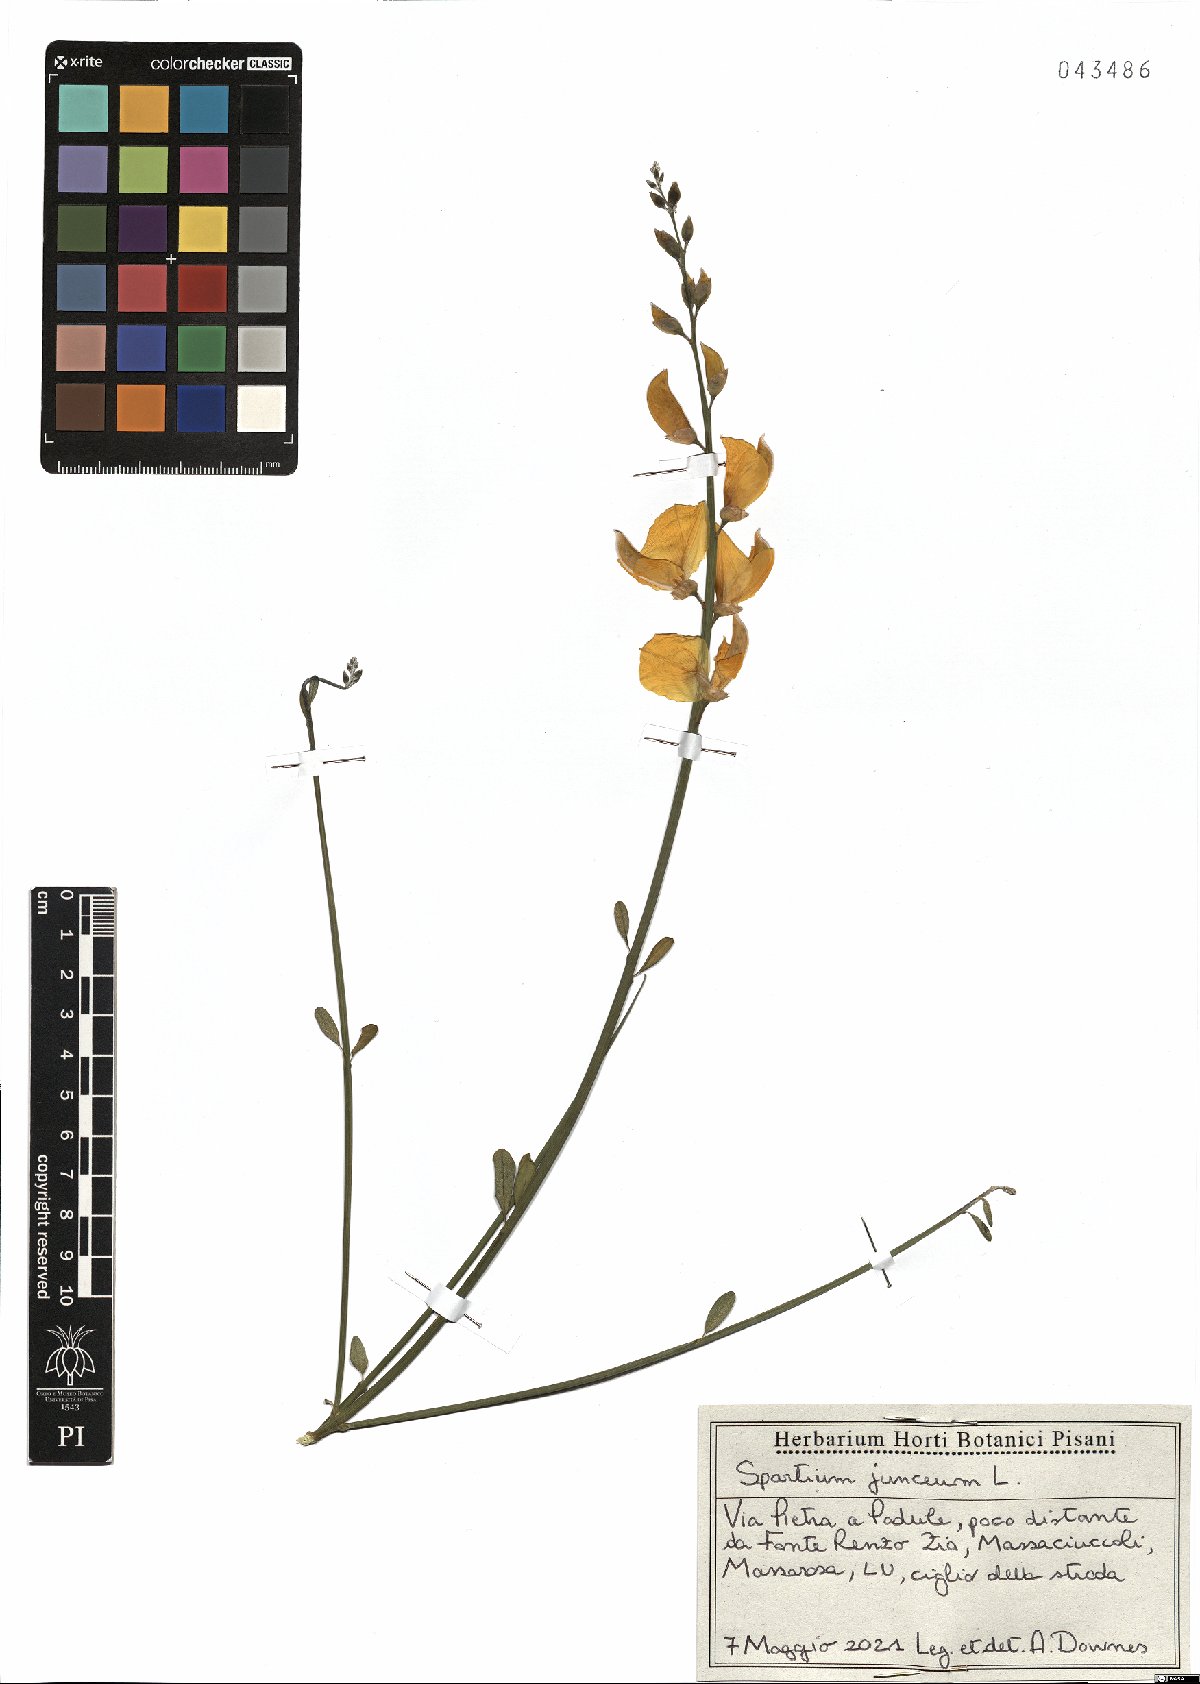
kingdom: Plantae
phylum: Tracheophyta
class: Magnoliopsida
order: Fabales
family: Fabaceae
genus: Spartium
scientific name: Spartium junceum
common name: Spanish broom
